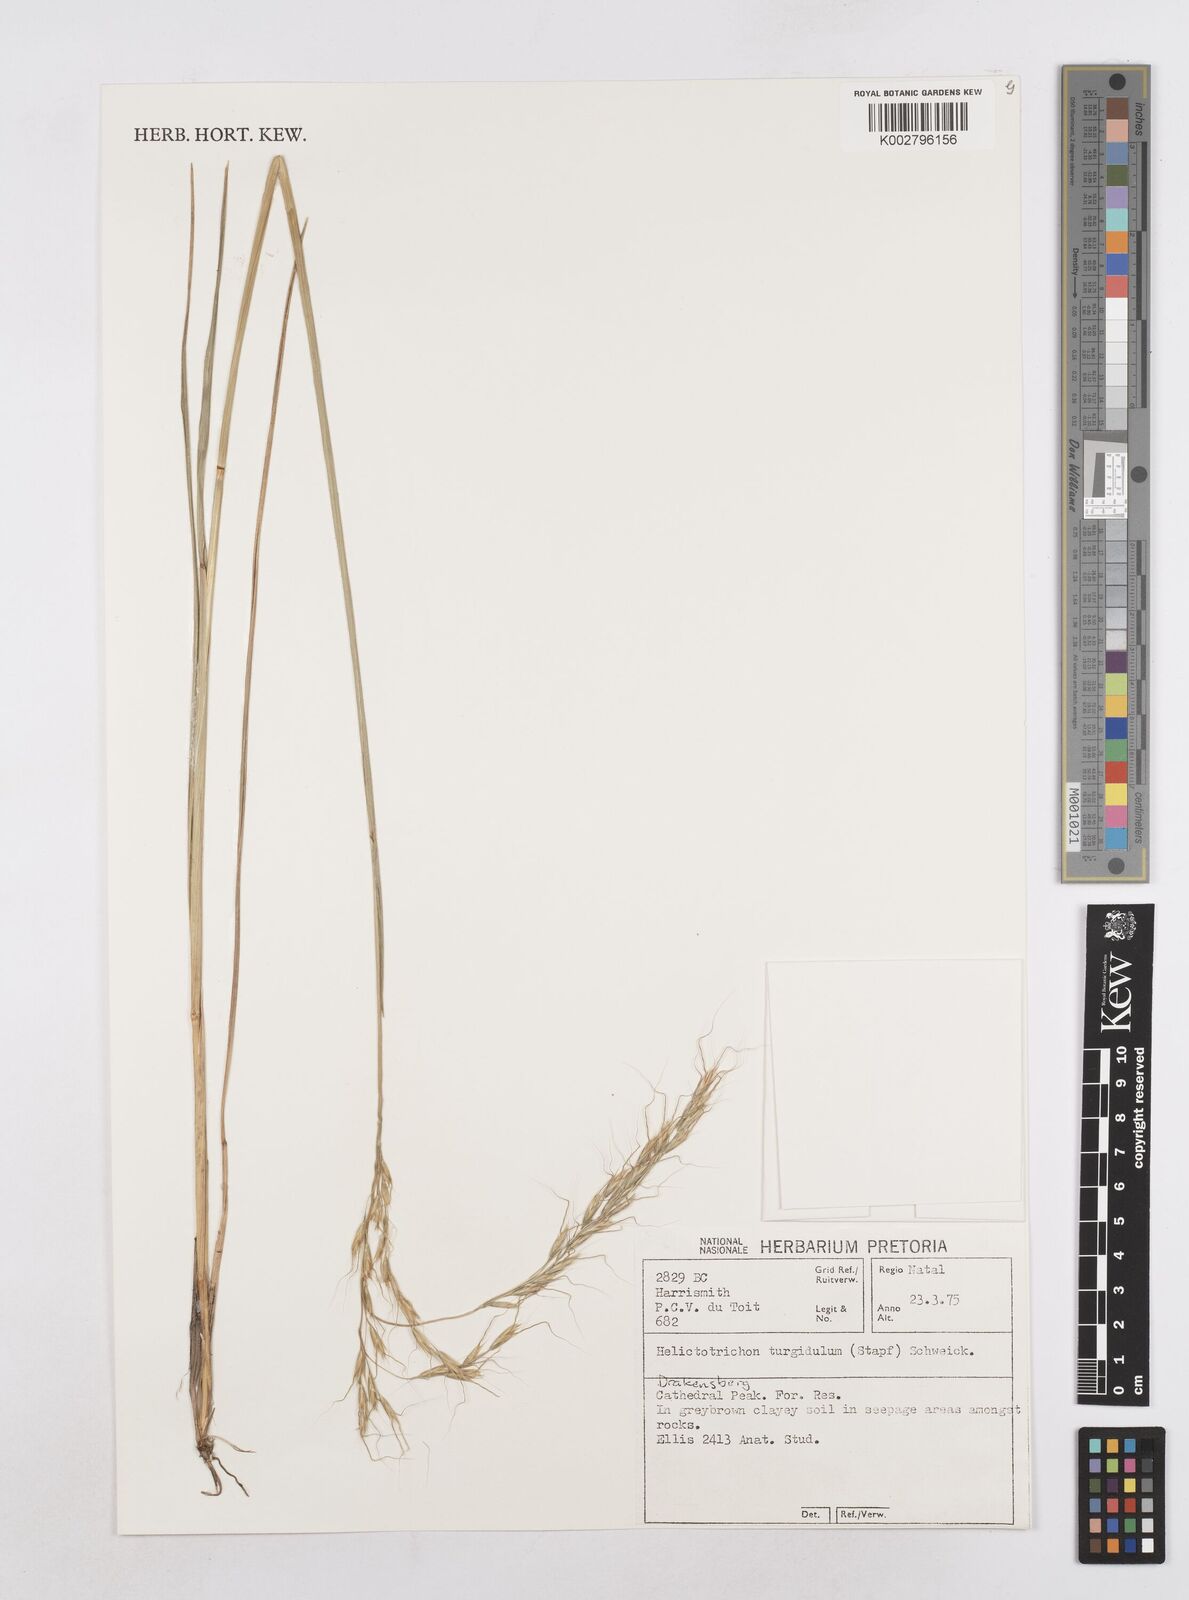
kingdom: Plantae
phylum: Tracheophyta
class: Liliopsida
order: Poales
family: Poaceae
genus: Trisetopsis
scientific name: Trisetopsis imberbis
